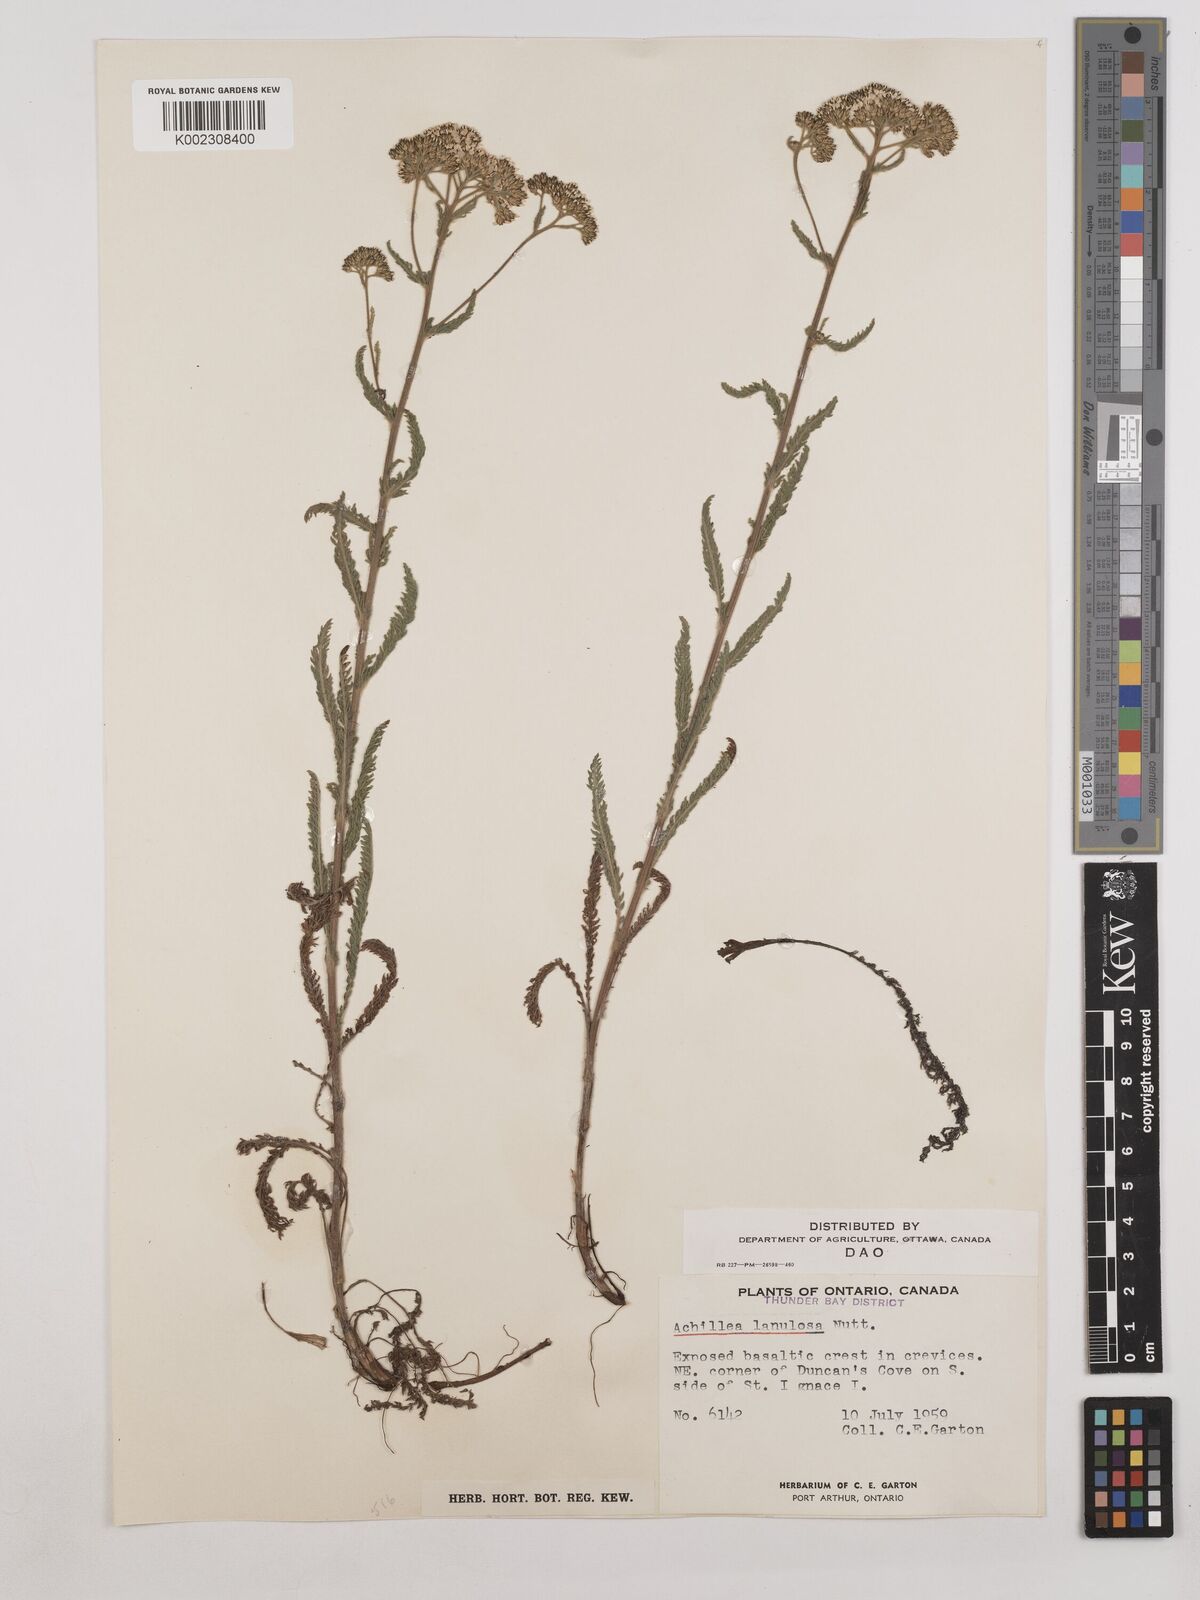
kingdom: Plantae
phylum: Tracheophyta
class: Magnoliopsida
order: Asterales
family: Asteraceae
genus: Achillea
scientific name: Achillea millefolium
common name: Yarrow
